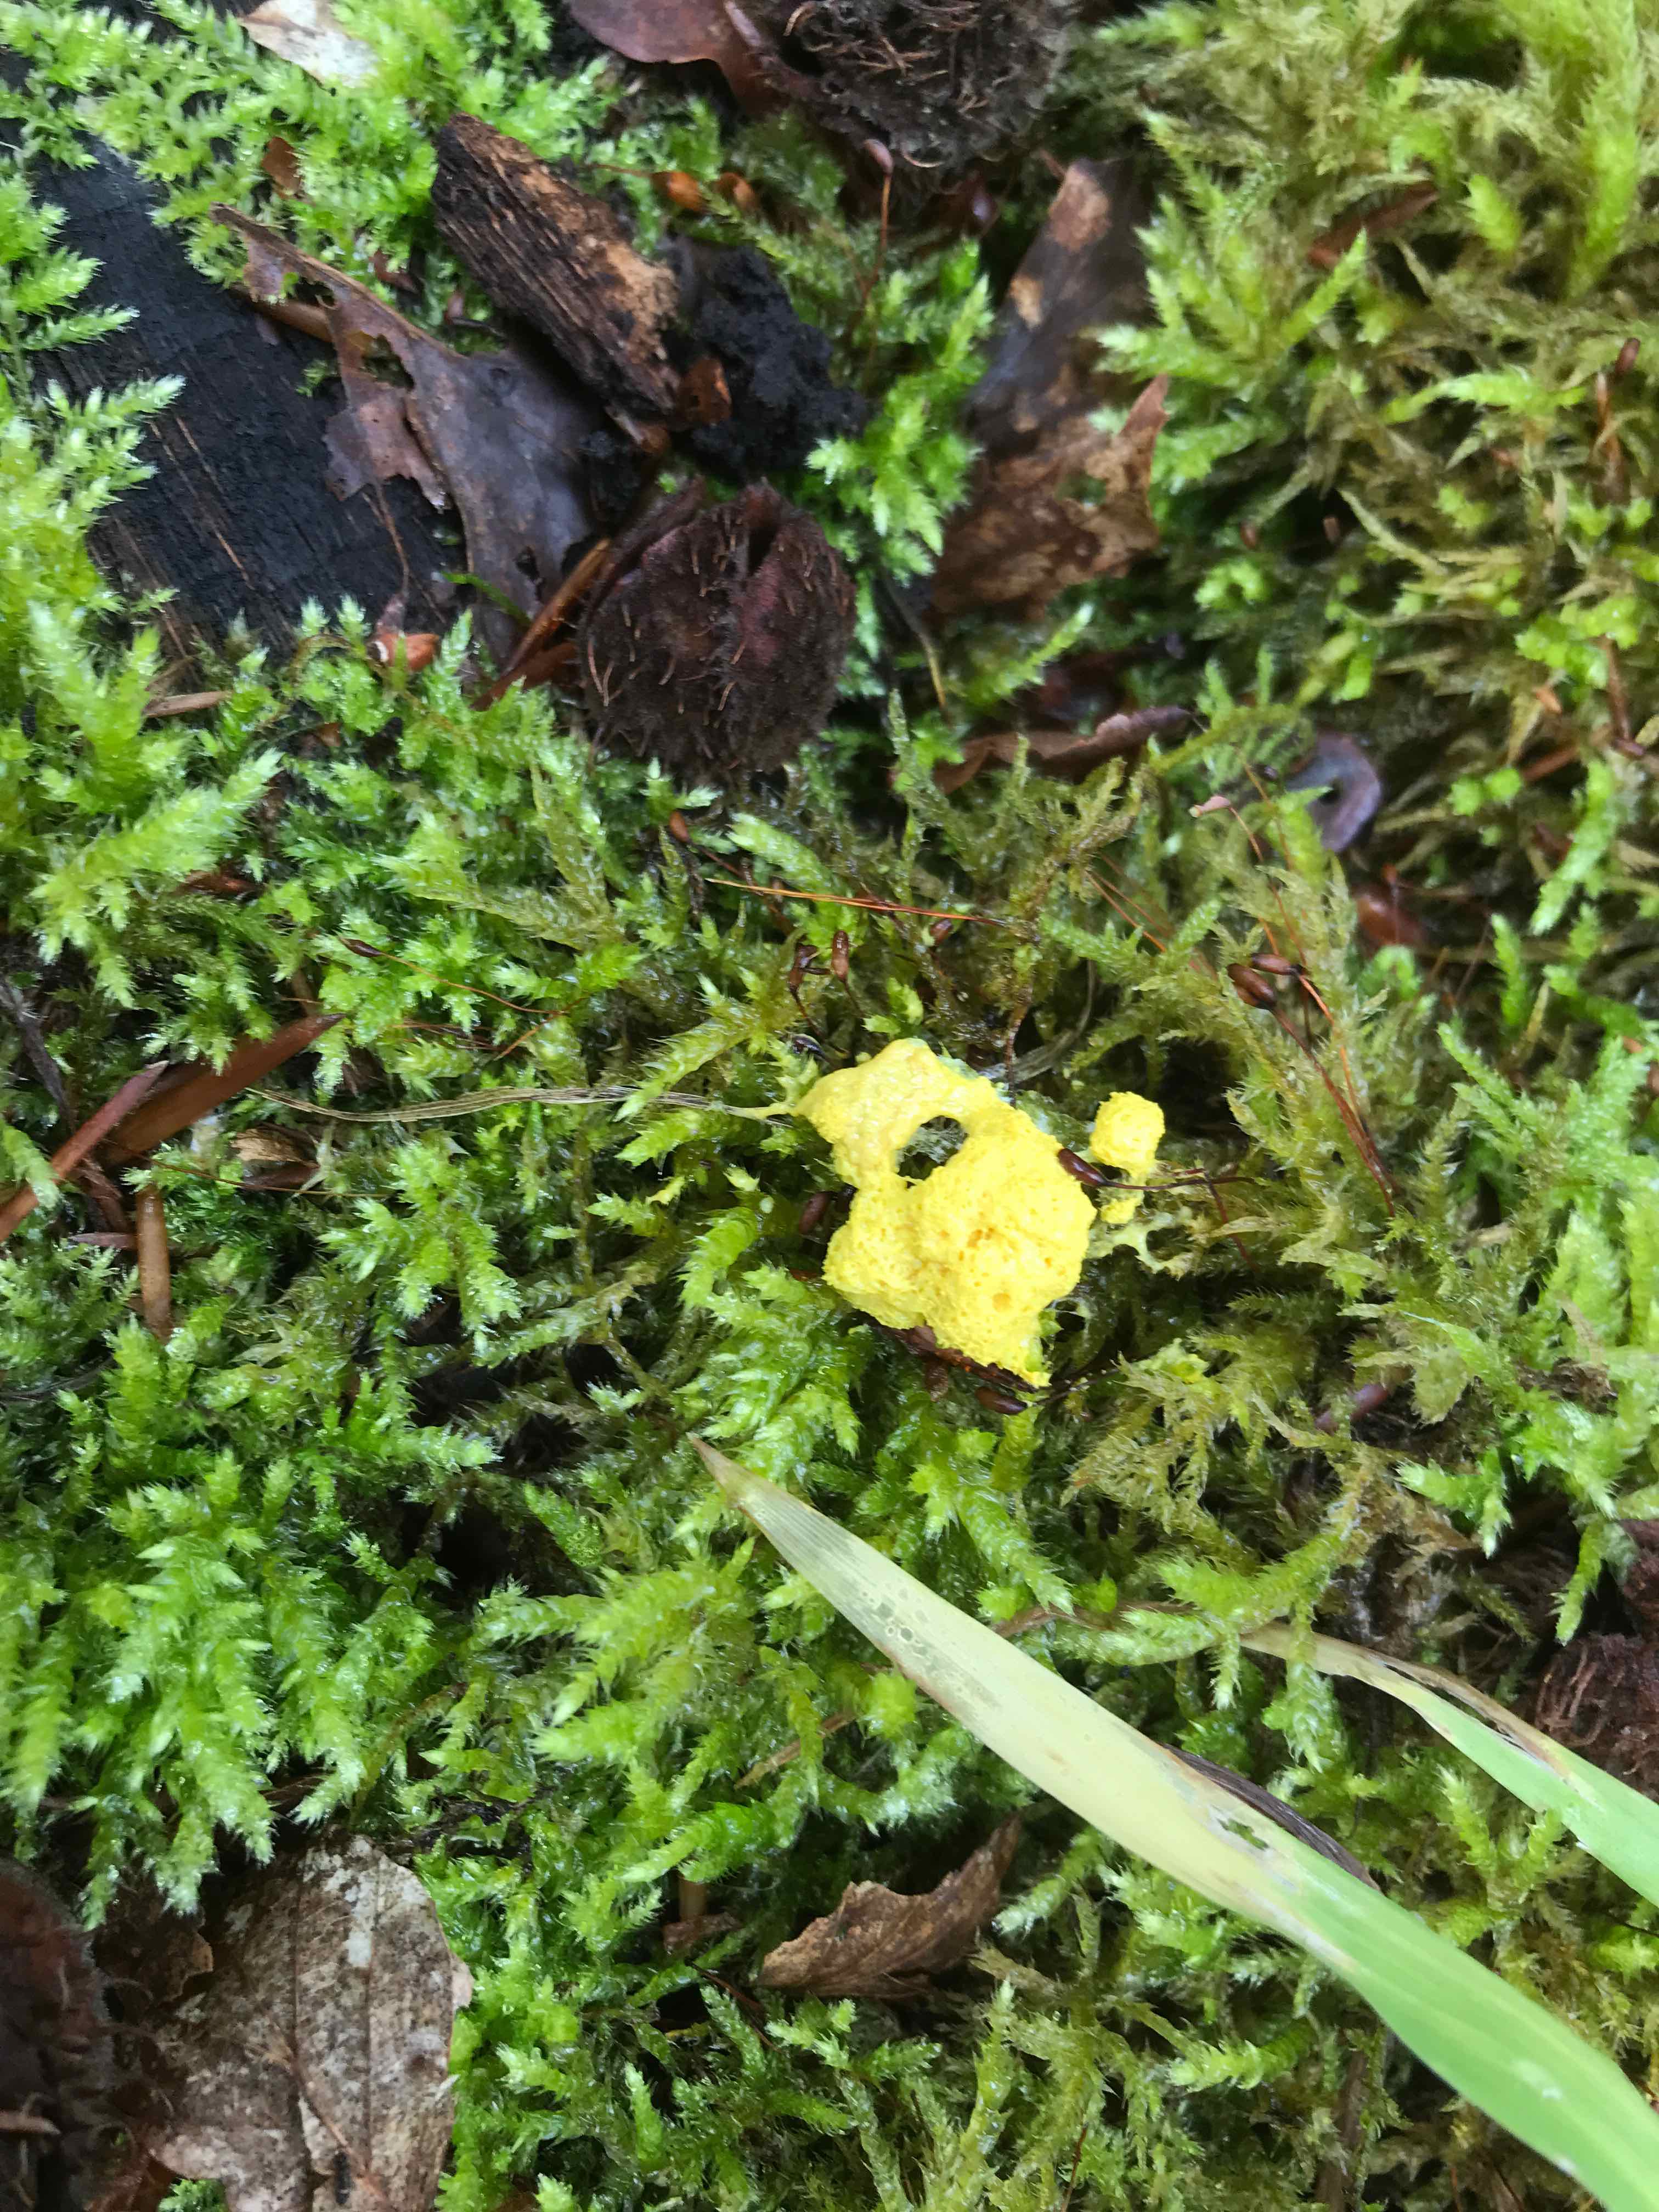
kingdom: Protozoa
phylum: Mycetozoa
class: Myxomycetes
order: Physarales
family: Physaraceae
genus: Fuligo
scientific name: Fuligo septica
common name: gul troldsmør
